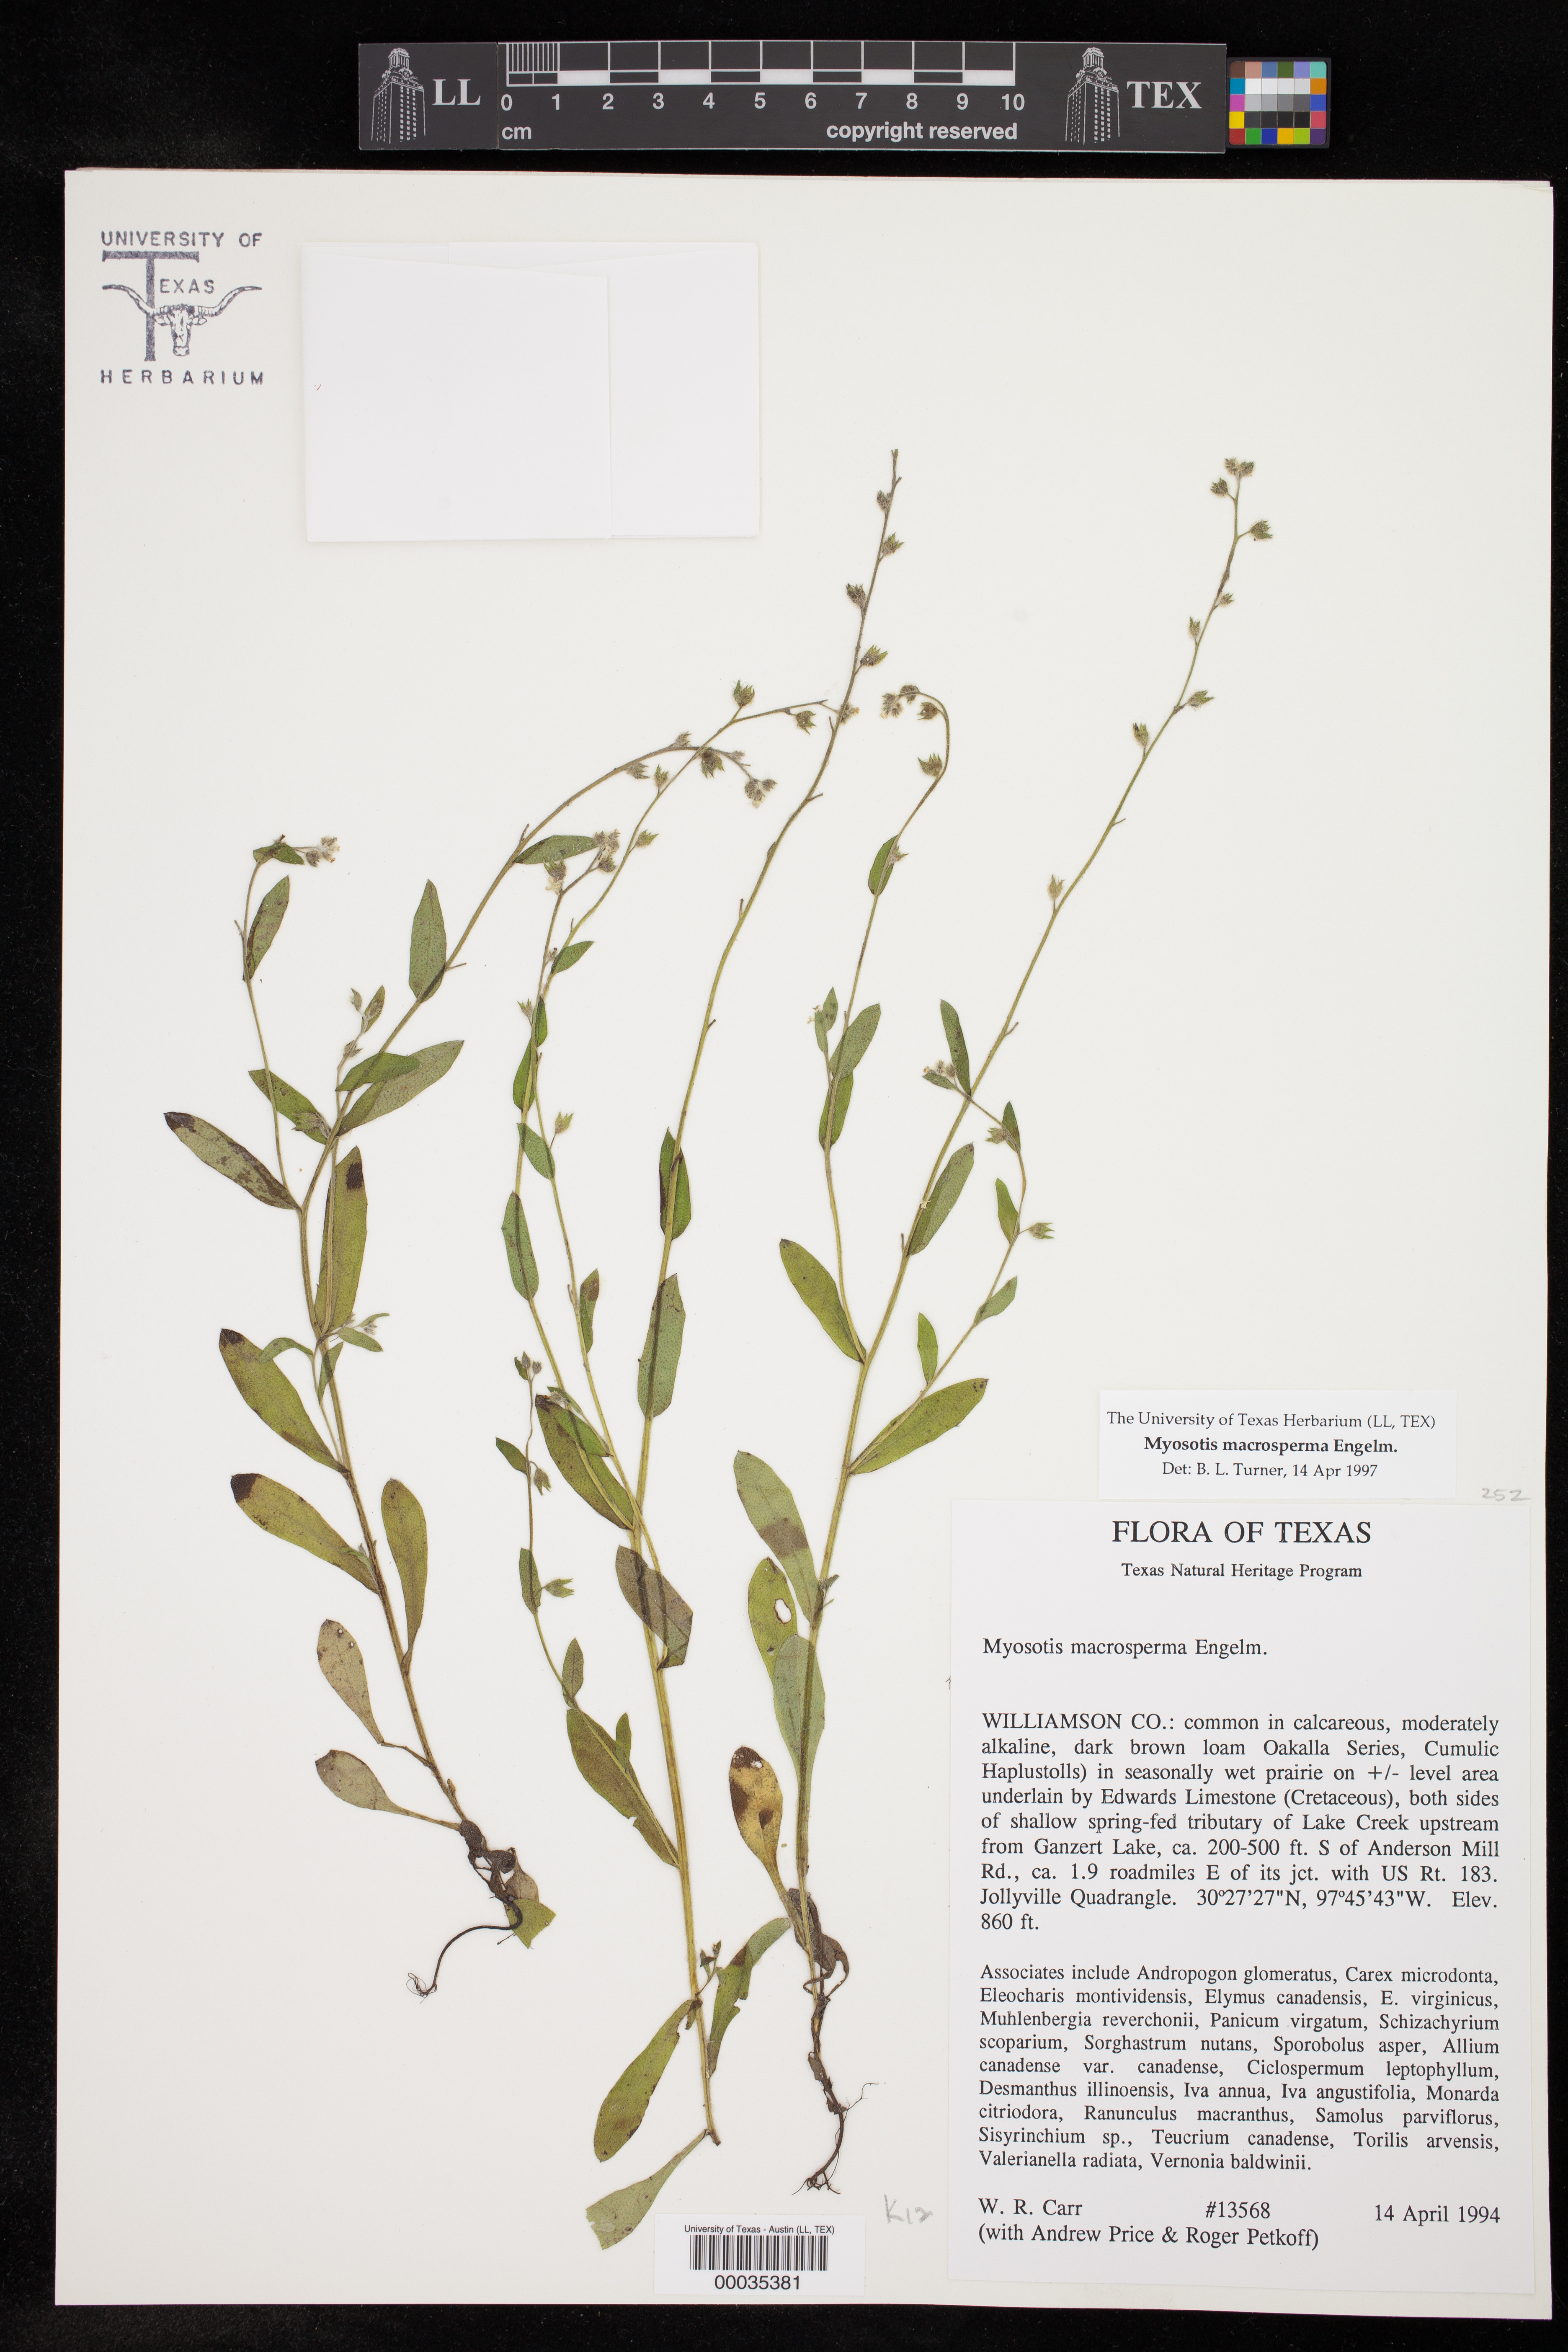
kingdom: Plantae
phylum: Tracheophyta
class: Magnoliopsida
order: Boraginales
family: Boraginaceae
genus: Myosotis
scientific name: Myosotis macrosperma
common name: Large-seed forget-me-not
